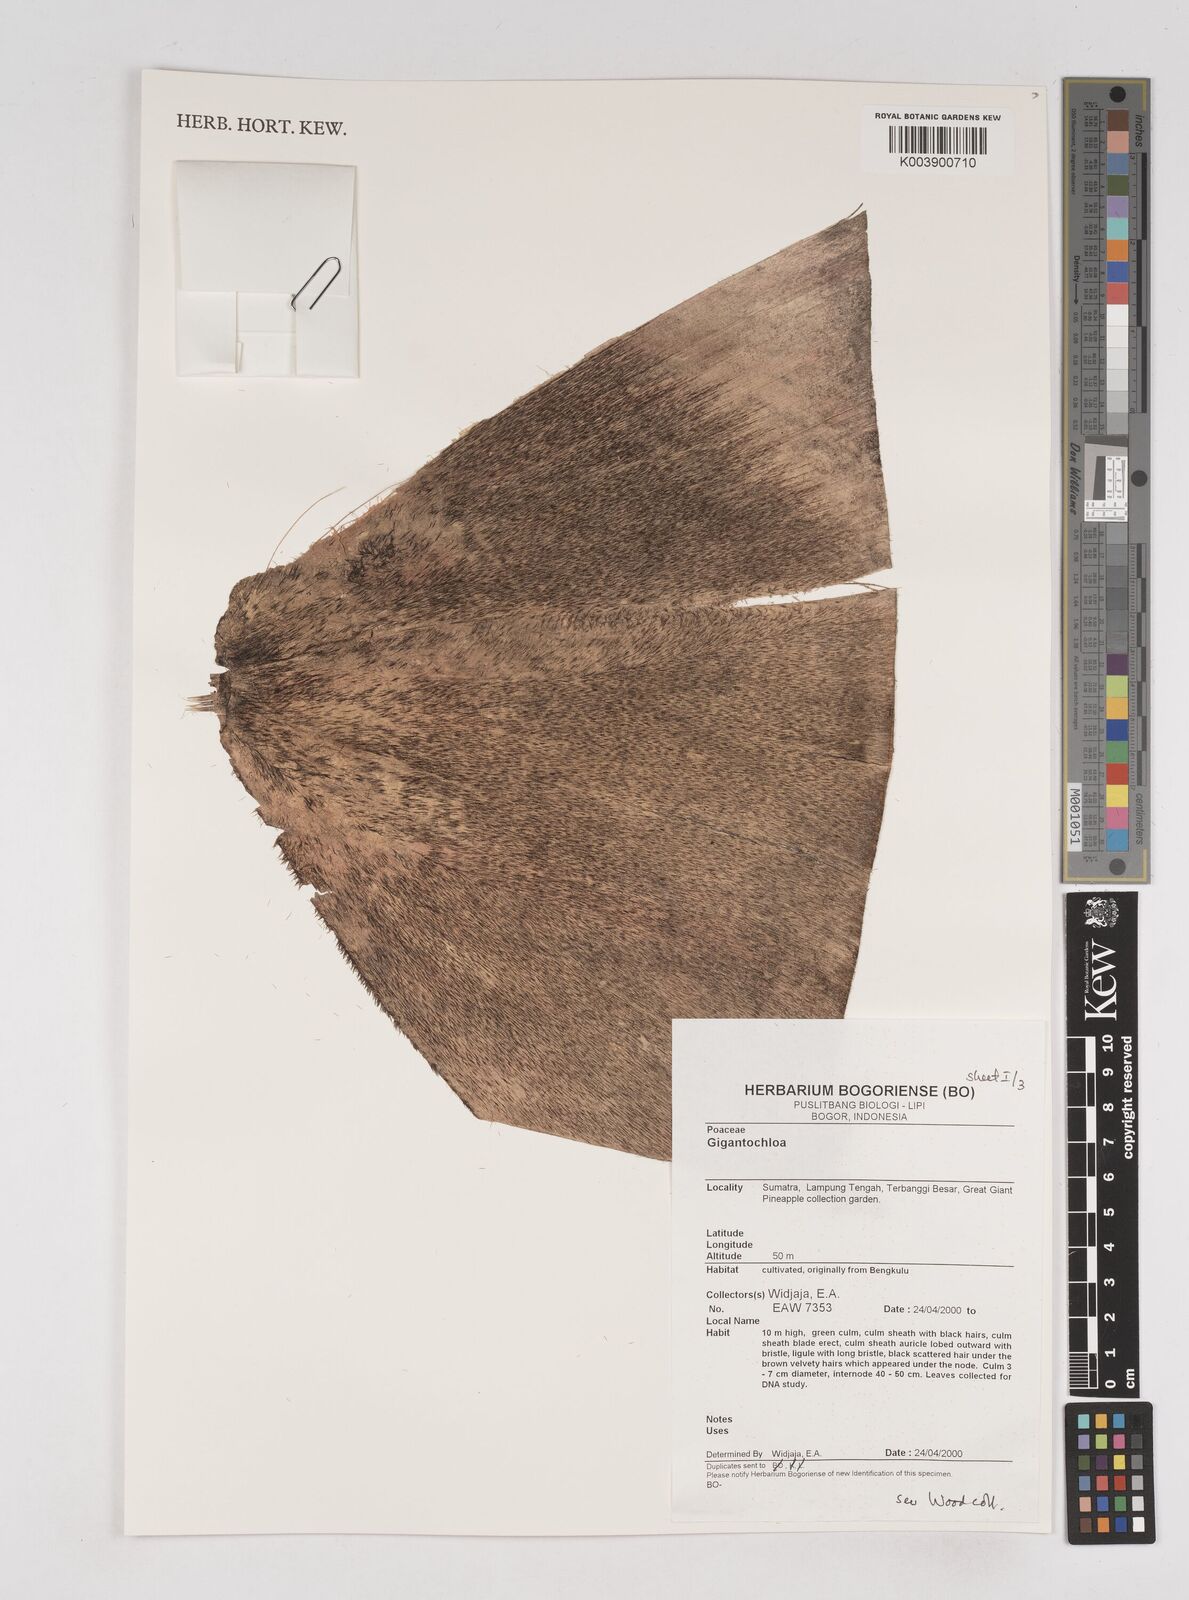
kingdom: Plantae
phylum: Tracheophyta
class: Liliopsida
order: Poales
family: Poaceae
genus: Gigantochloa
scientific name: Gigantochloa
